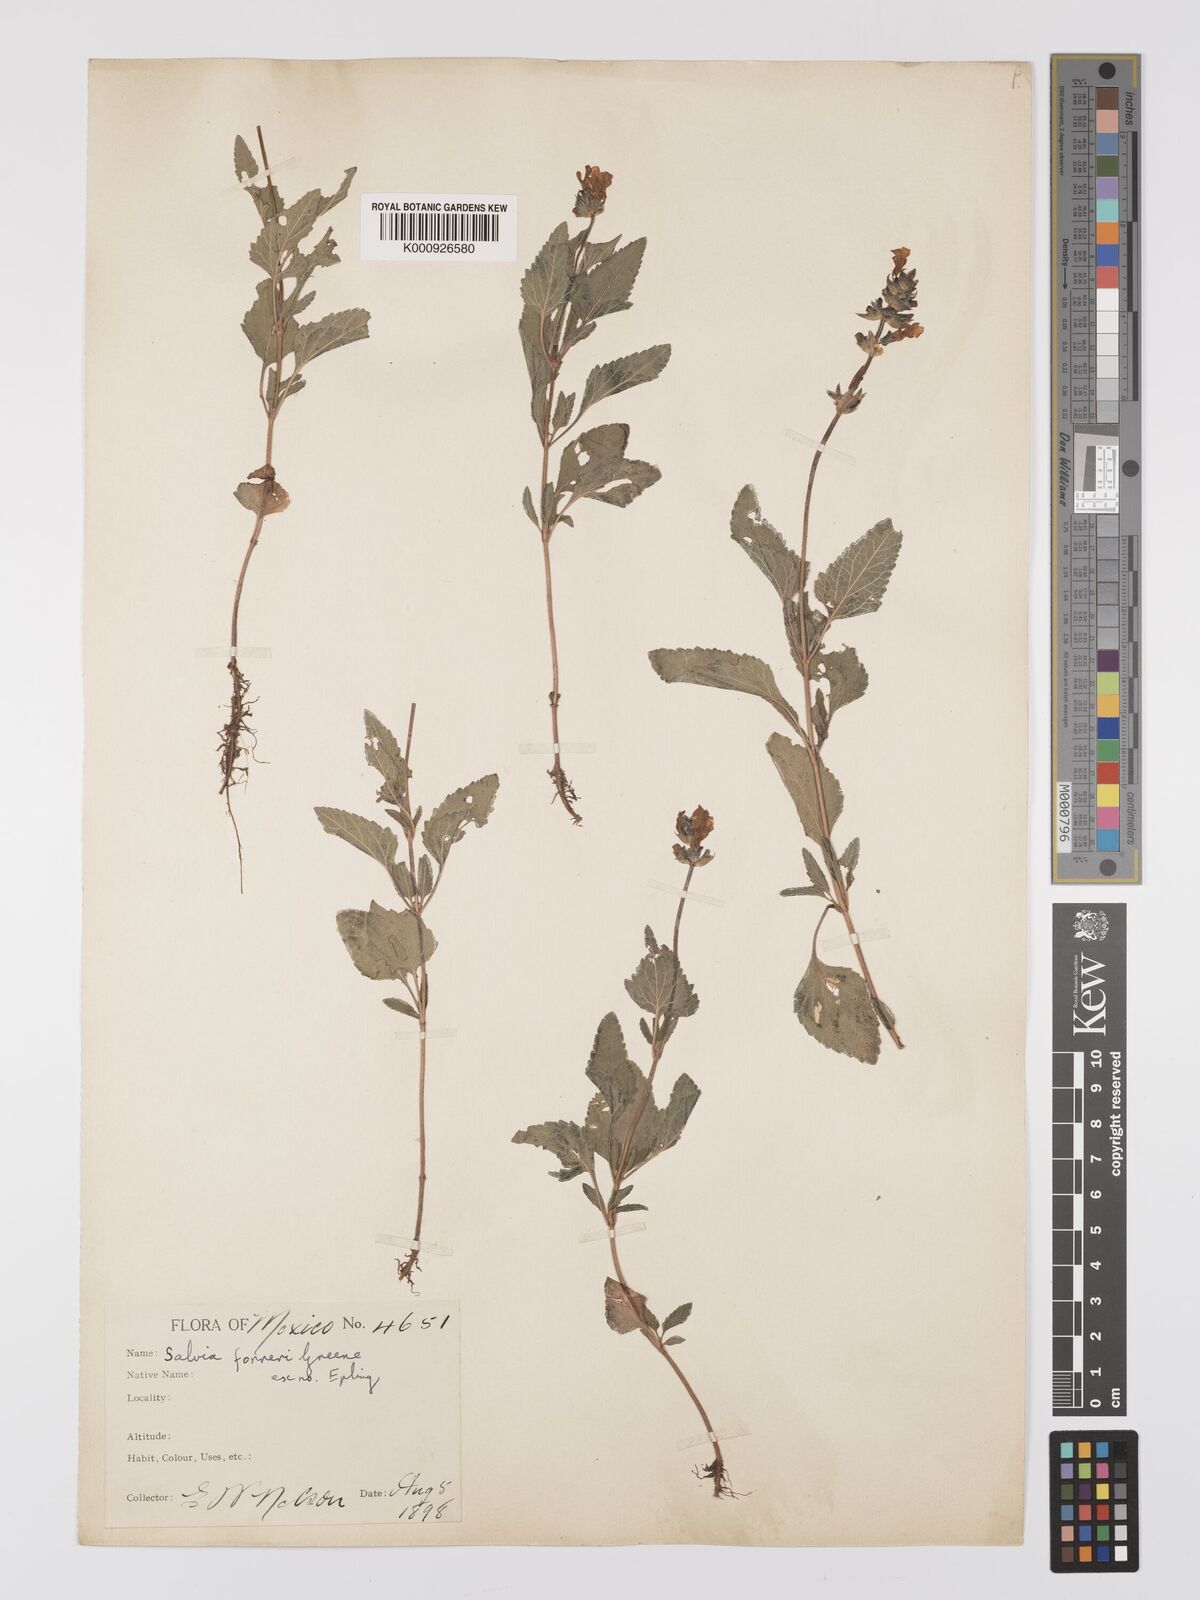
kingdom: Plantae
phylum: Tracheophyta
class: Magnoliopsida
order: Lamiales
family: Lamiaceae
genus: Salvia
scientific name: Salvia prunelloides
